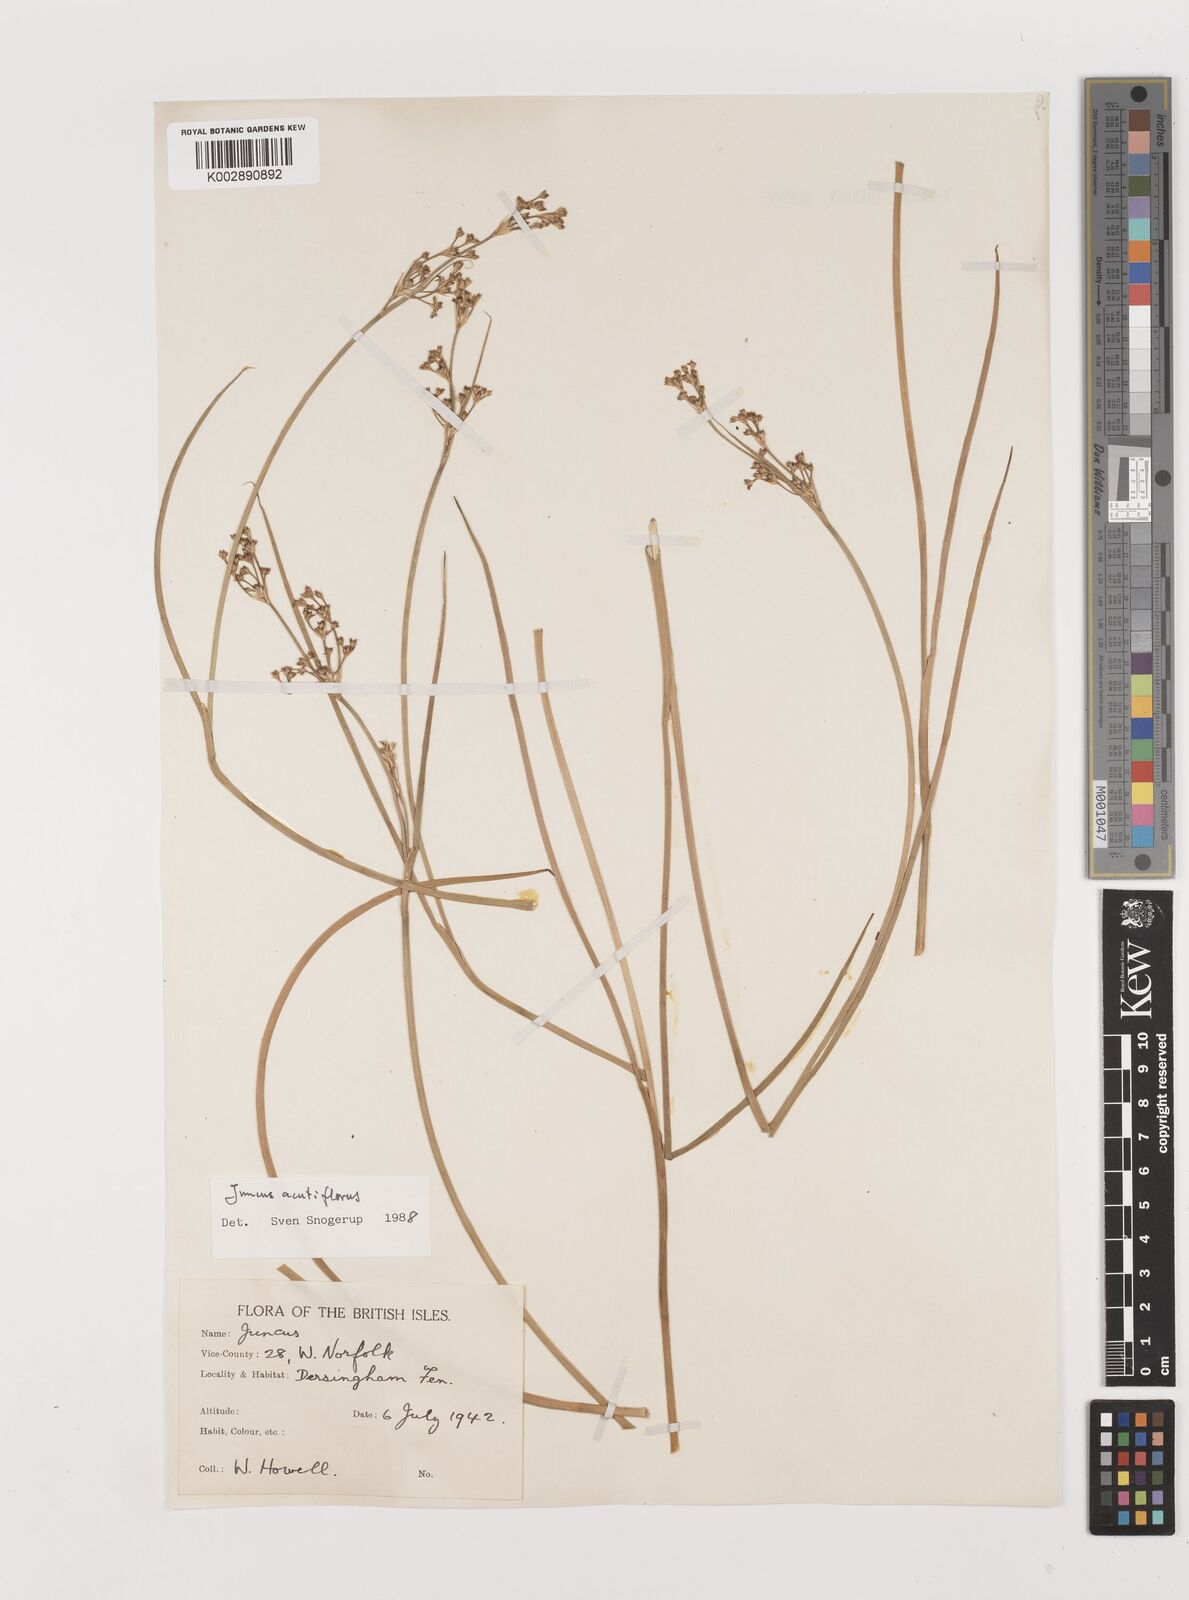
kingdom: Plantae
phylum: Tracheophyta
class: Liliopsida
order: Poales
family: Juncaceae
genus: Juncus
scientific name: Juncus
